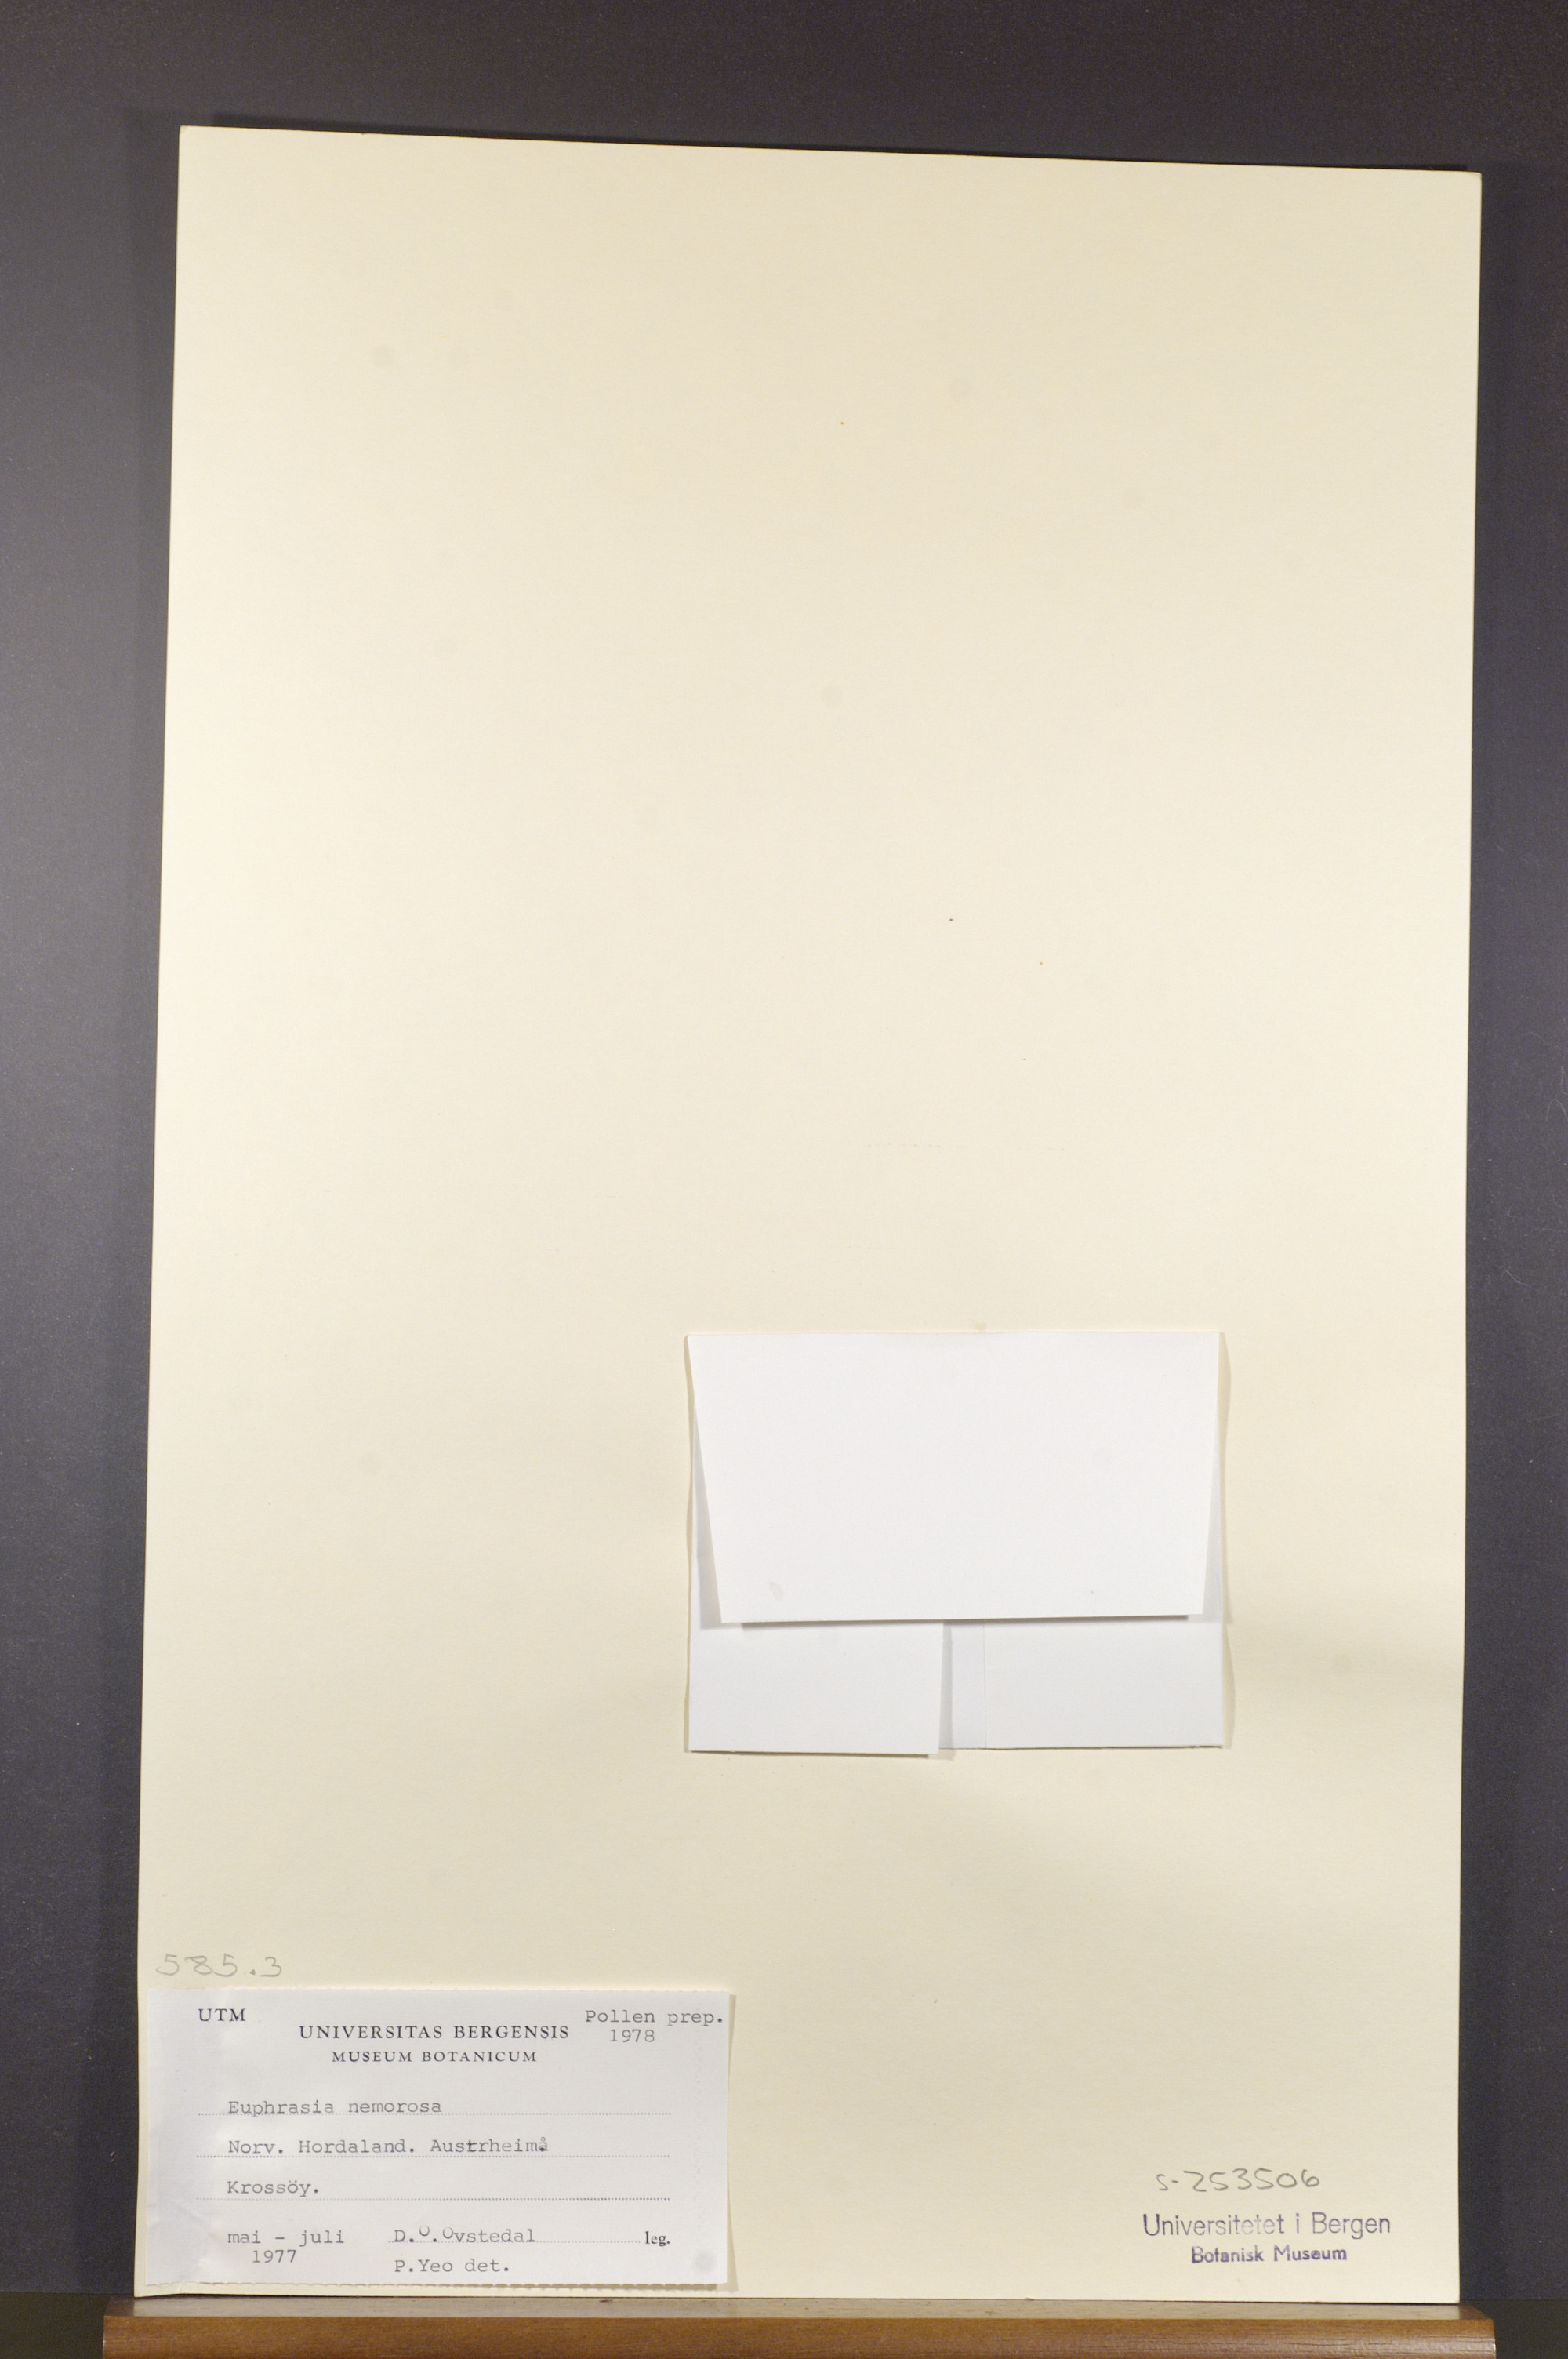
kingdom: Plantae
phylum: Tracheophyta
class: Magnoliopsida
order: Lamiales
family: Orobanchaceae
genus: Euphrasia
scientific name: Euphrasia nemorosa
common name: Common eyebright
